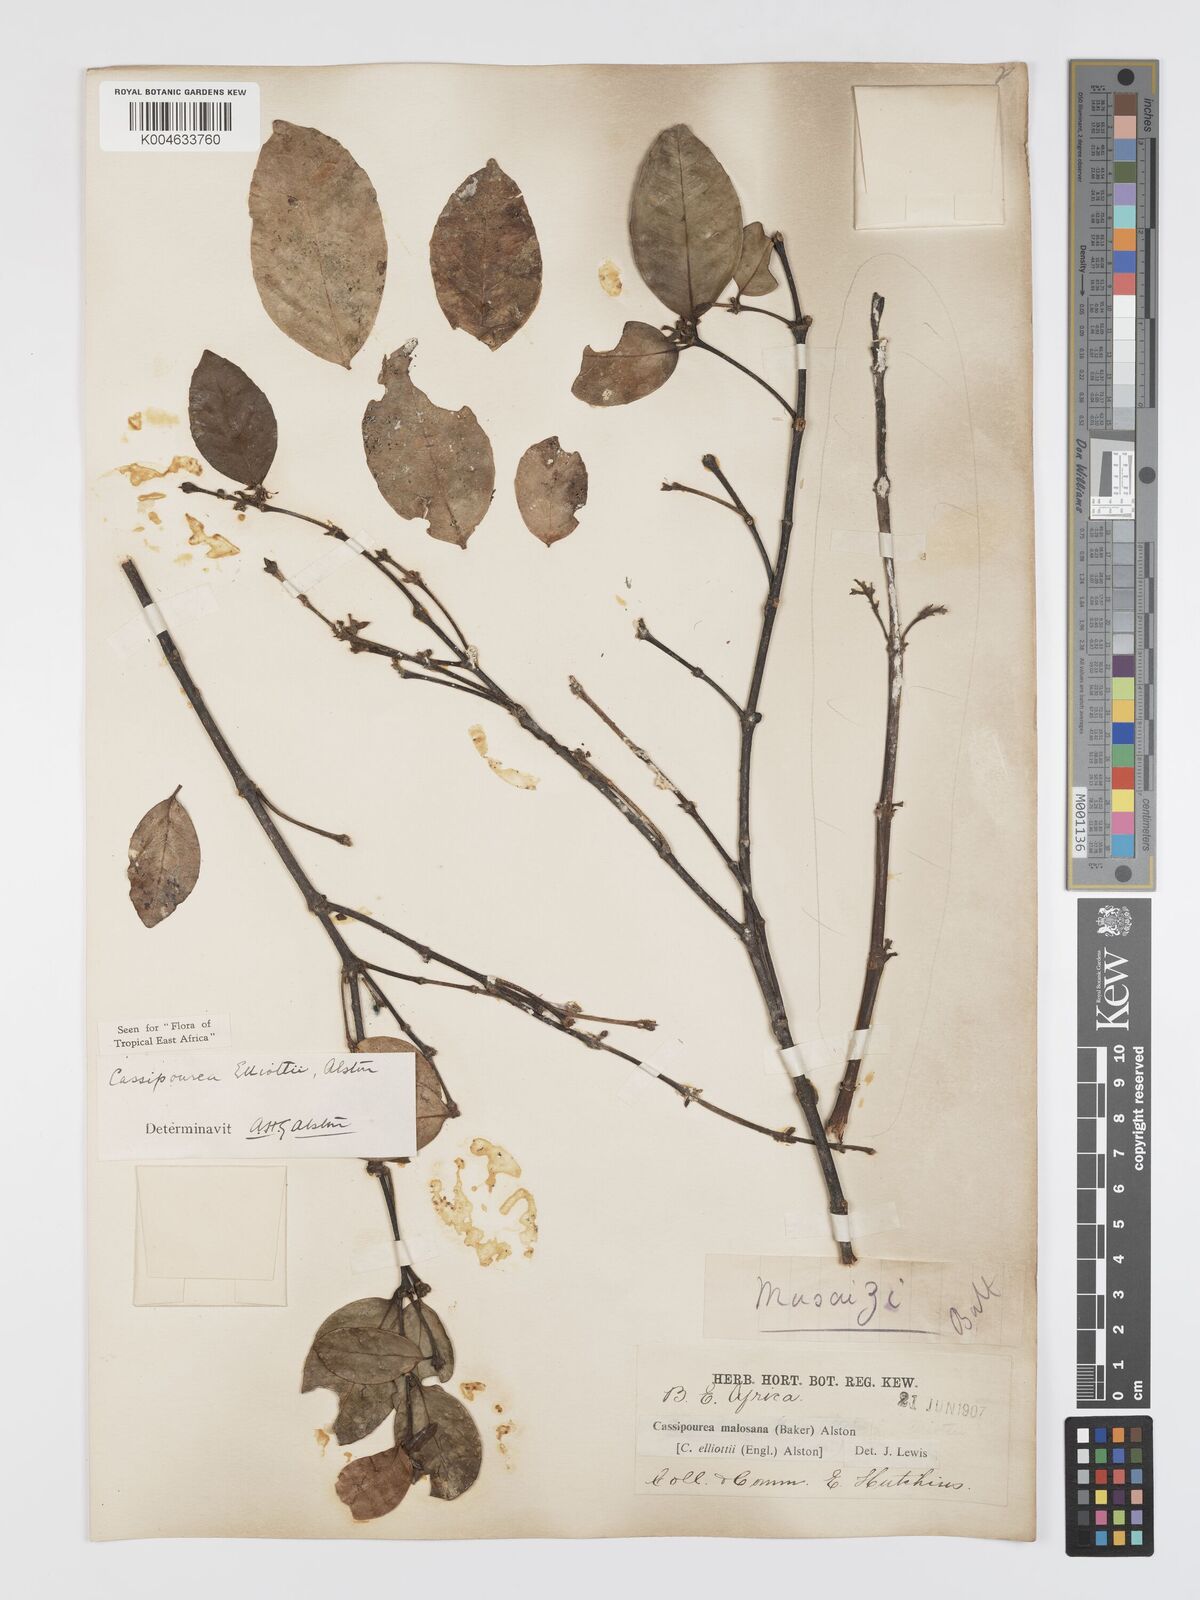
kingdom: Plantae
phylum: Tracheophyta
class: Magnoliopsida
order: Malpighiales
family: Rhizophoraceae
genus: Cassipourea
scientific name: Cassipourea
